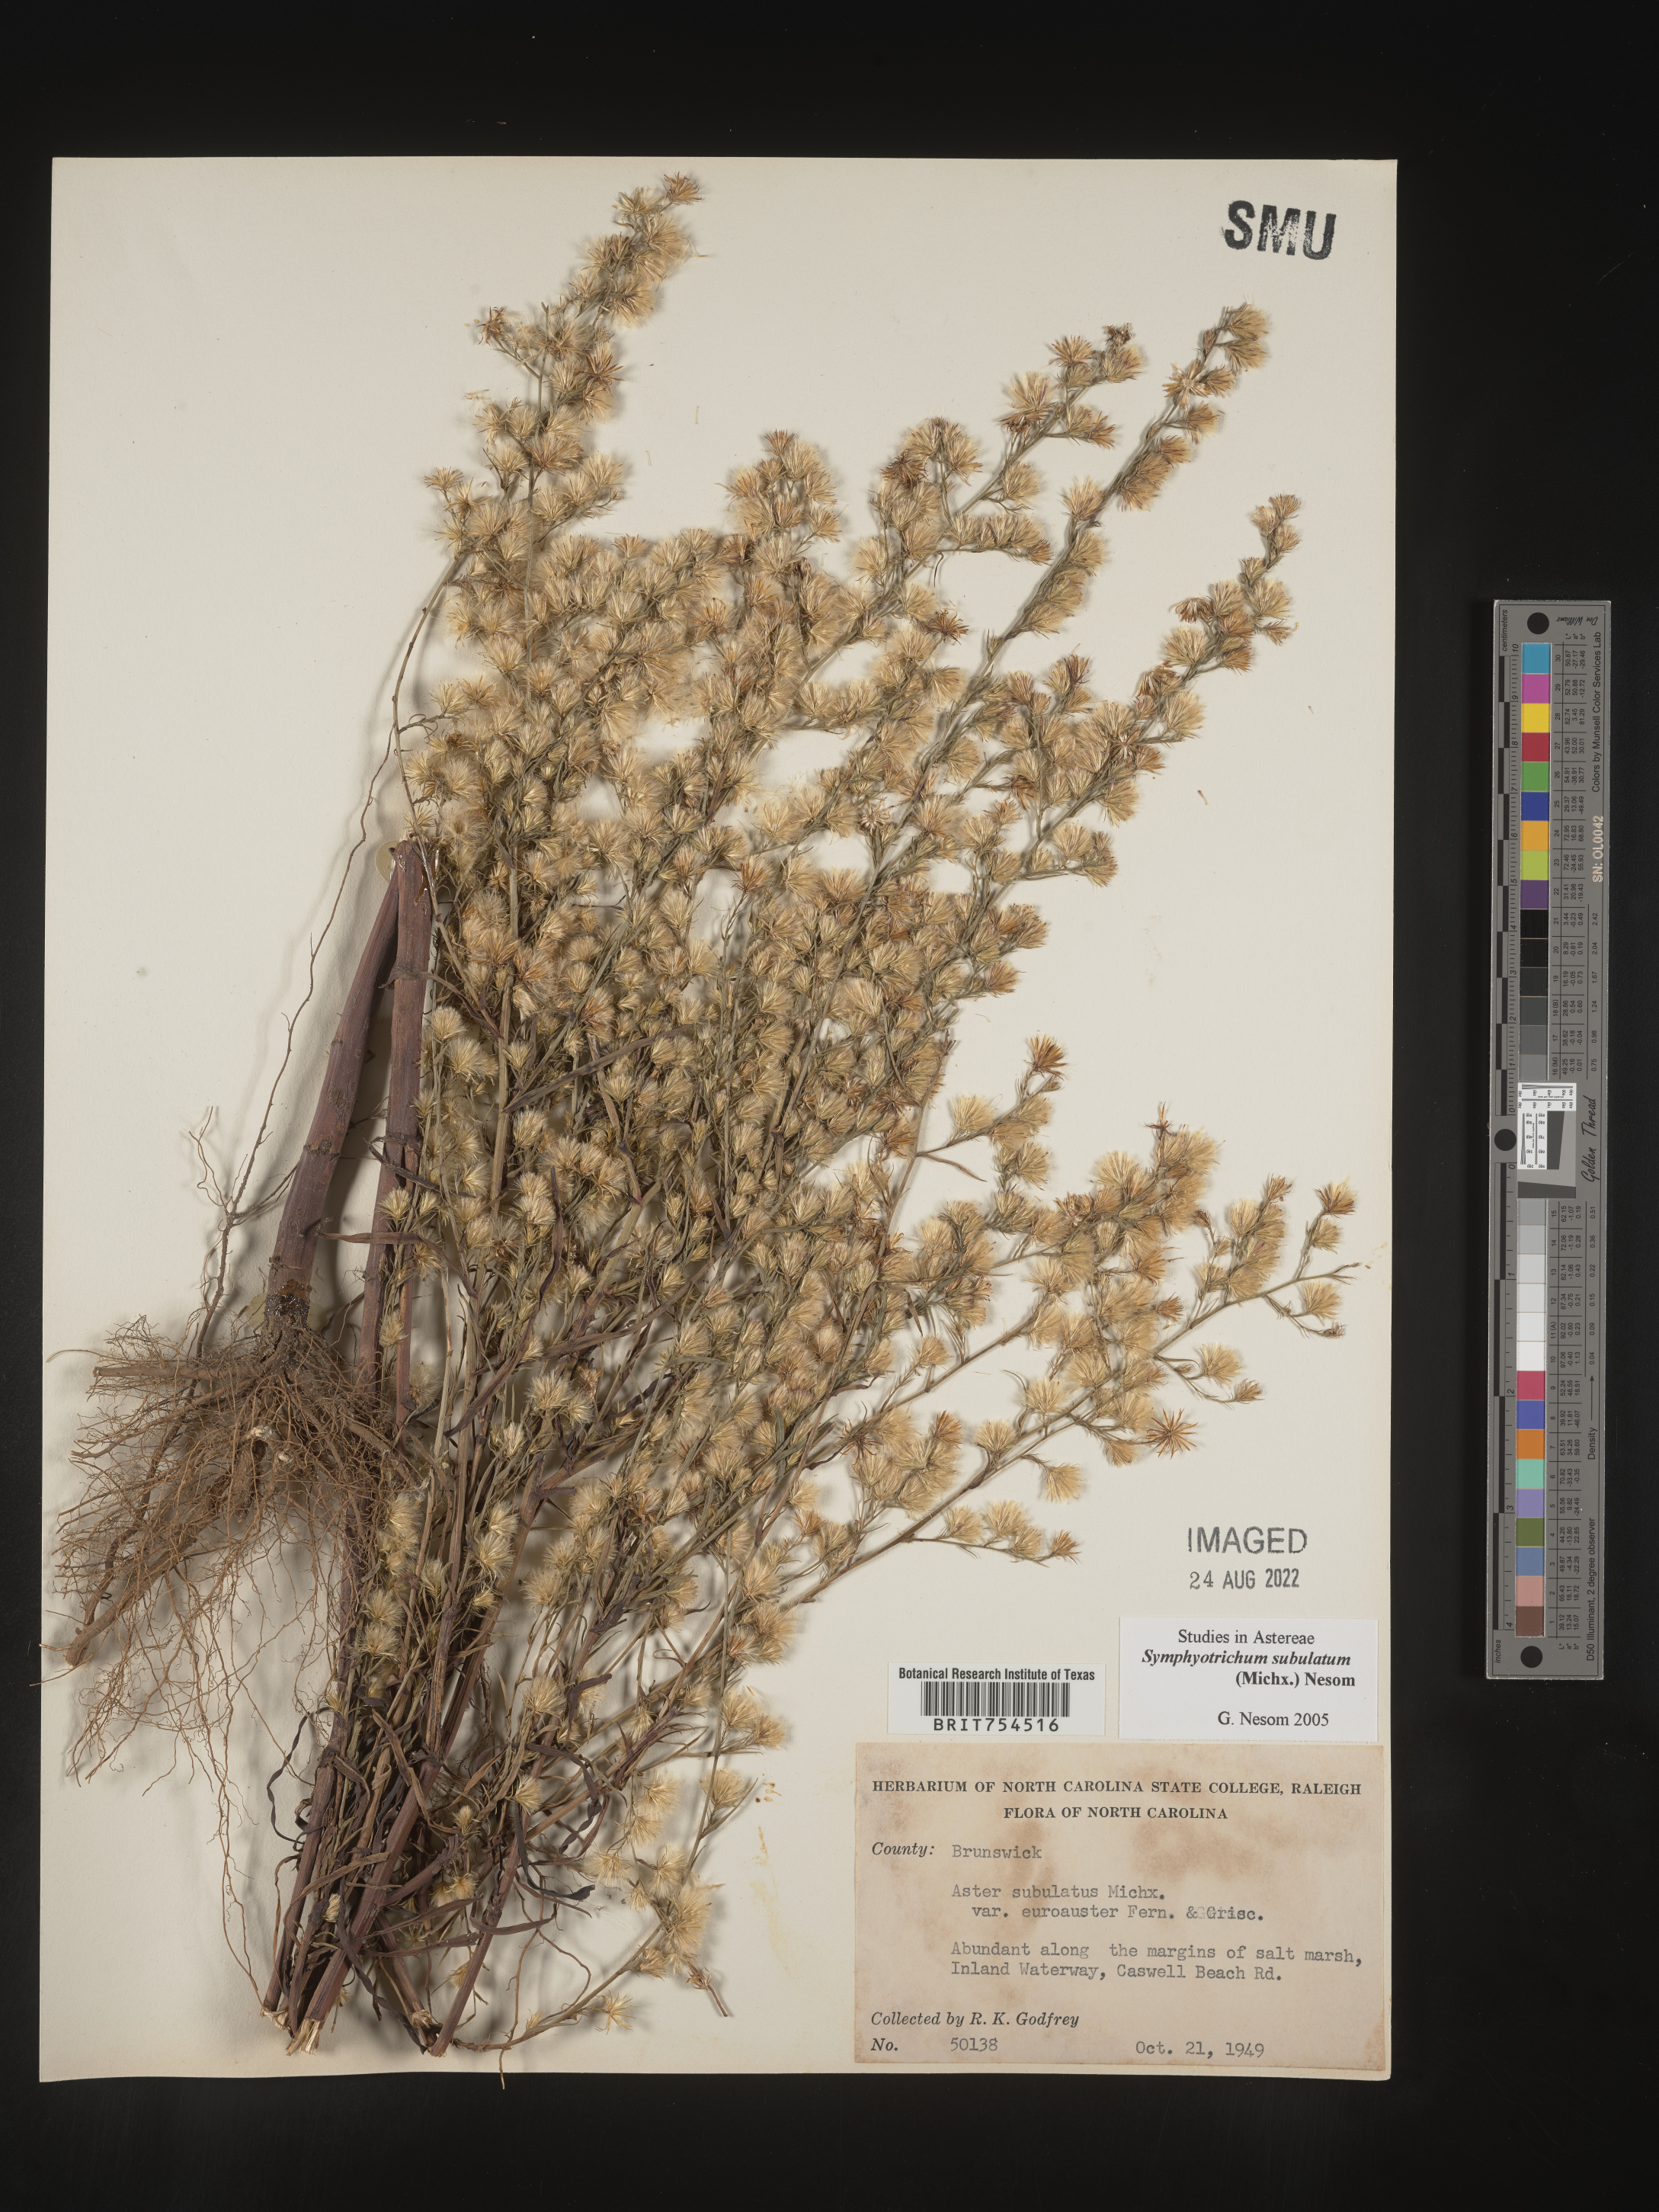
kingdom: Plantae
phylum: Tracheophyta
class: Magnoliopsida
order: Asterales
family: Asteraceae
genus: Symphyotrichum
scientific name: Symphyotrichum subulatum
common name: Annual saltmarsh aster
